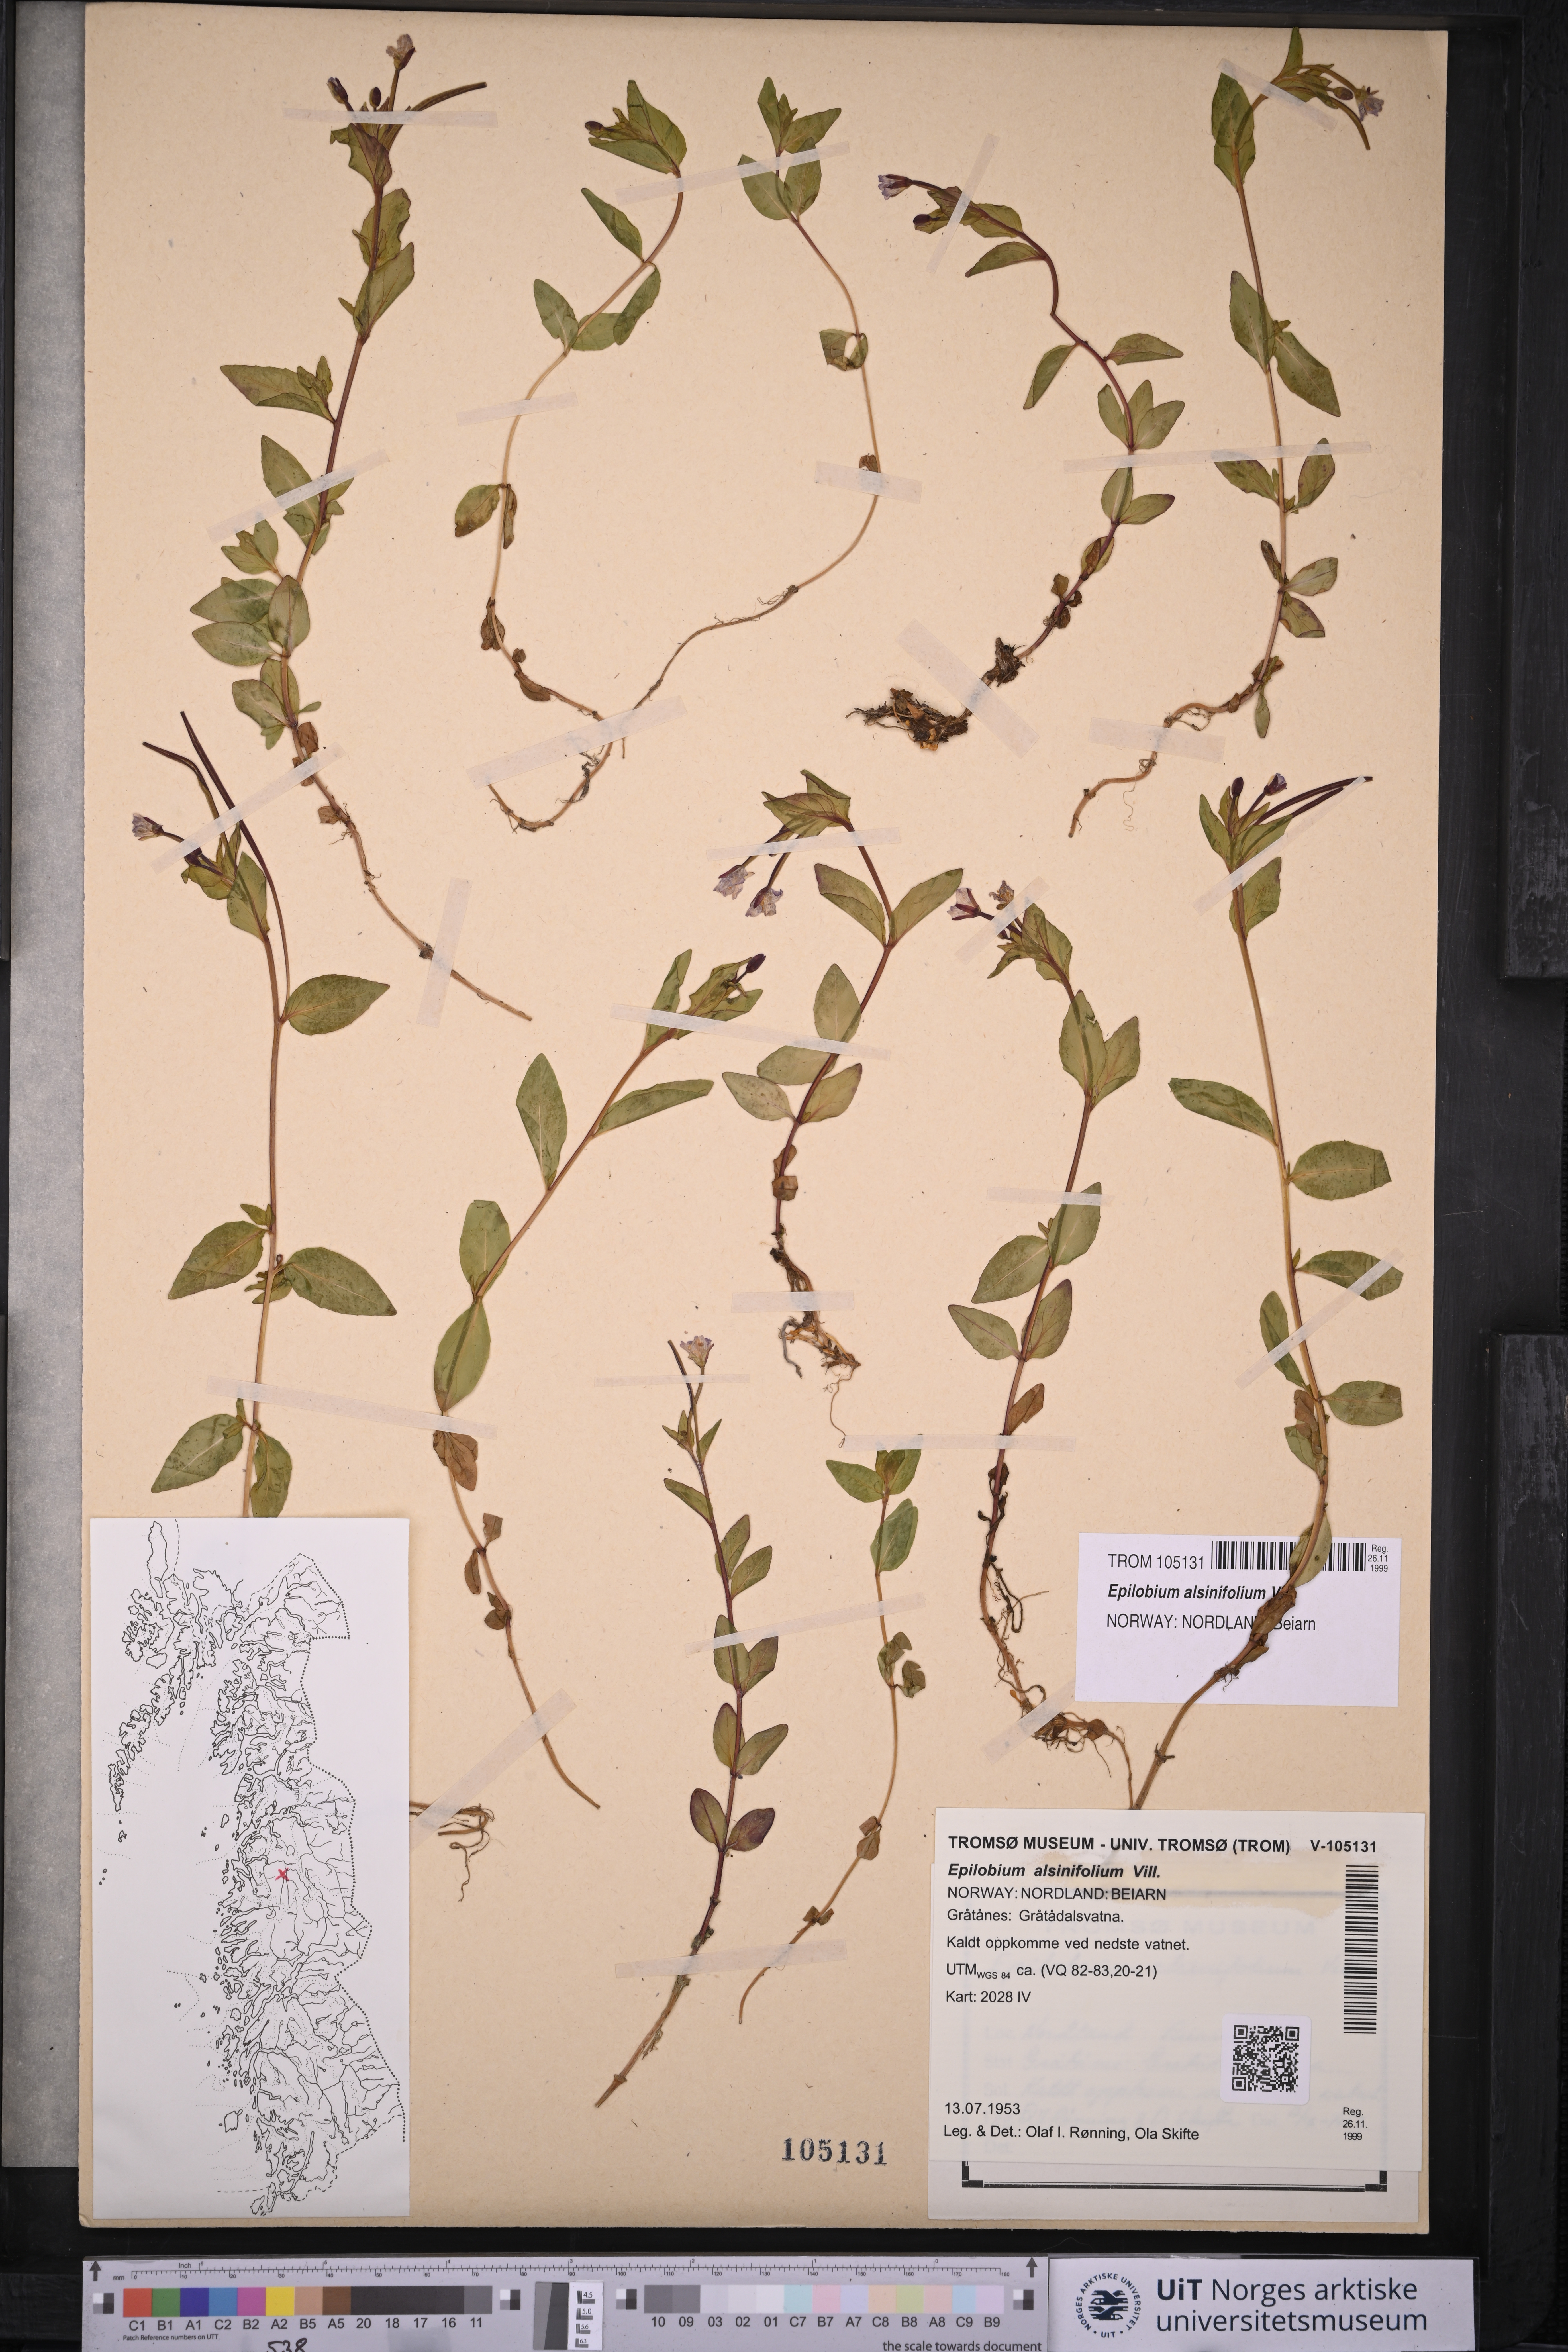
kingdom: Plantae
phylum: Tracheophyta
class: Magnoliopsida
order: Myrtales
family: Onagraceae
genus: Epilobium
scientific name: Epilobium alsinifolium
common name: Chickweed willowherb
